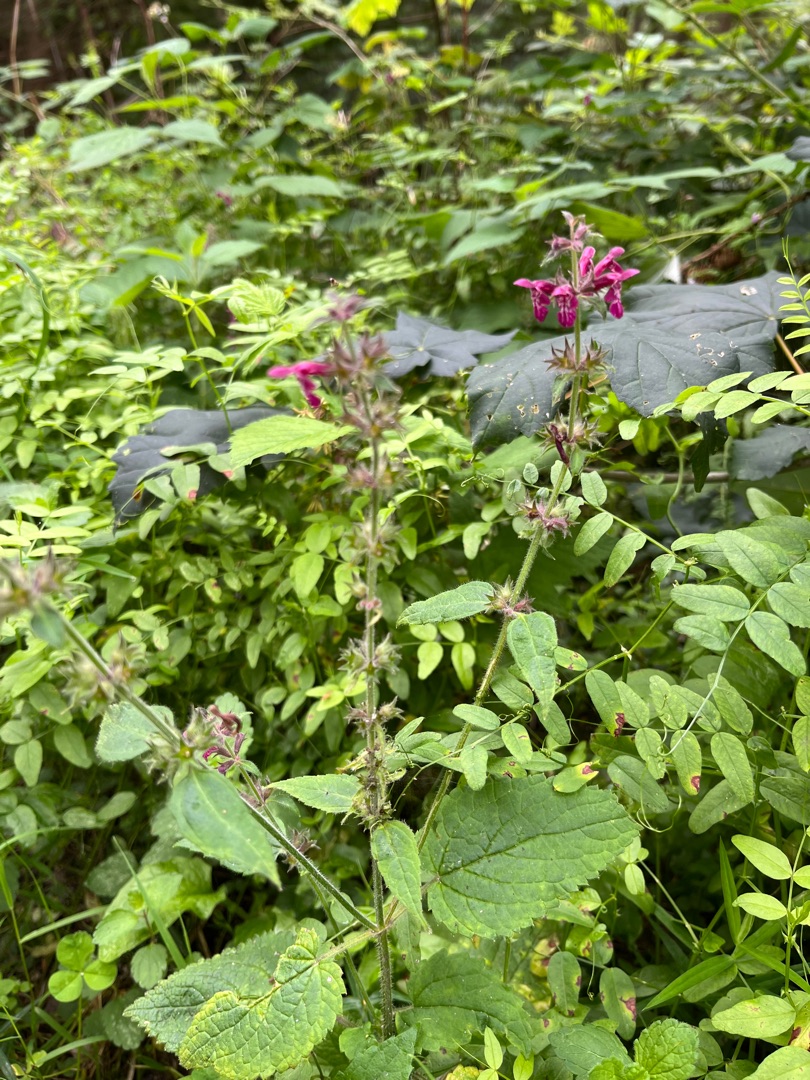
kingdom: Plantae
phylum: Tracheophyta
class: Magnoliopsida
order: Lamiales
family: Lamiaceae
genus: Stachys
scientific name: Stachys sylvatica
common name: Skov-galtetand
